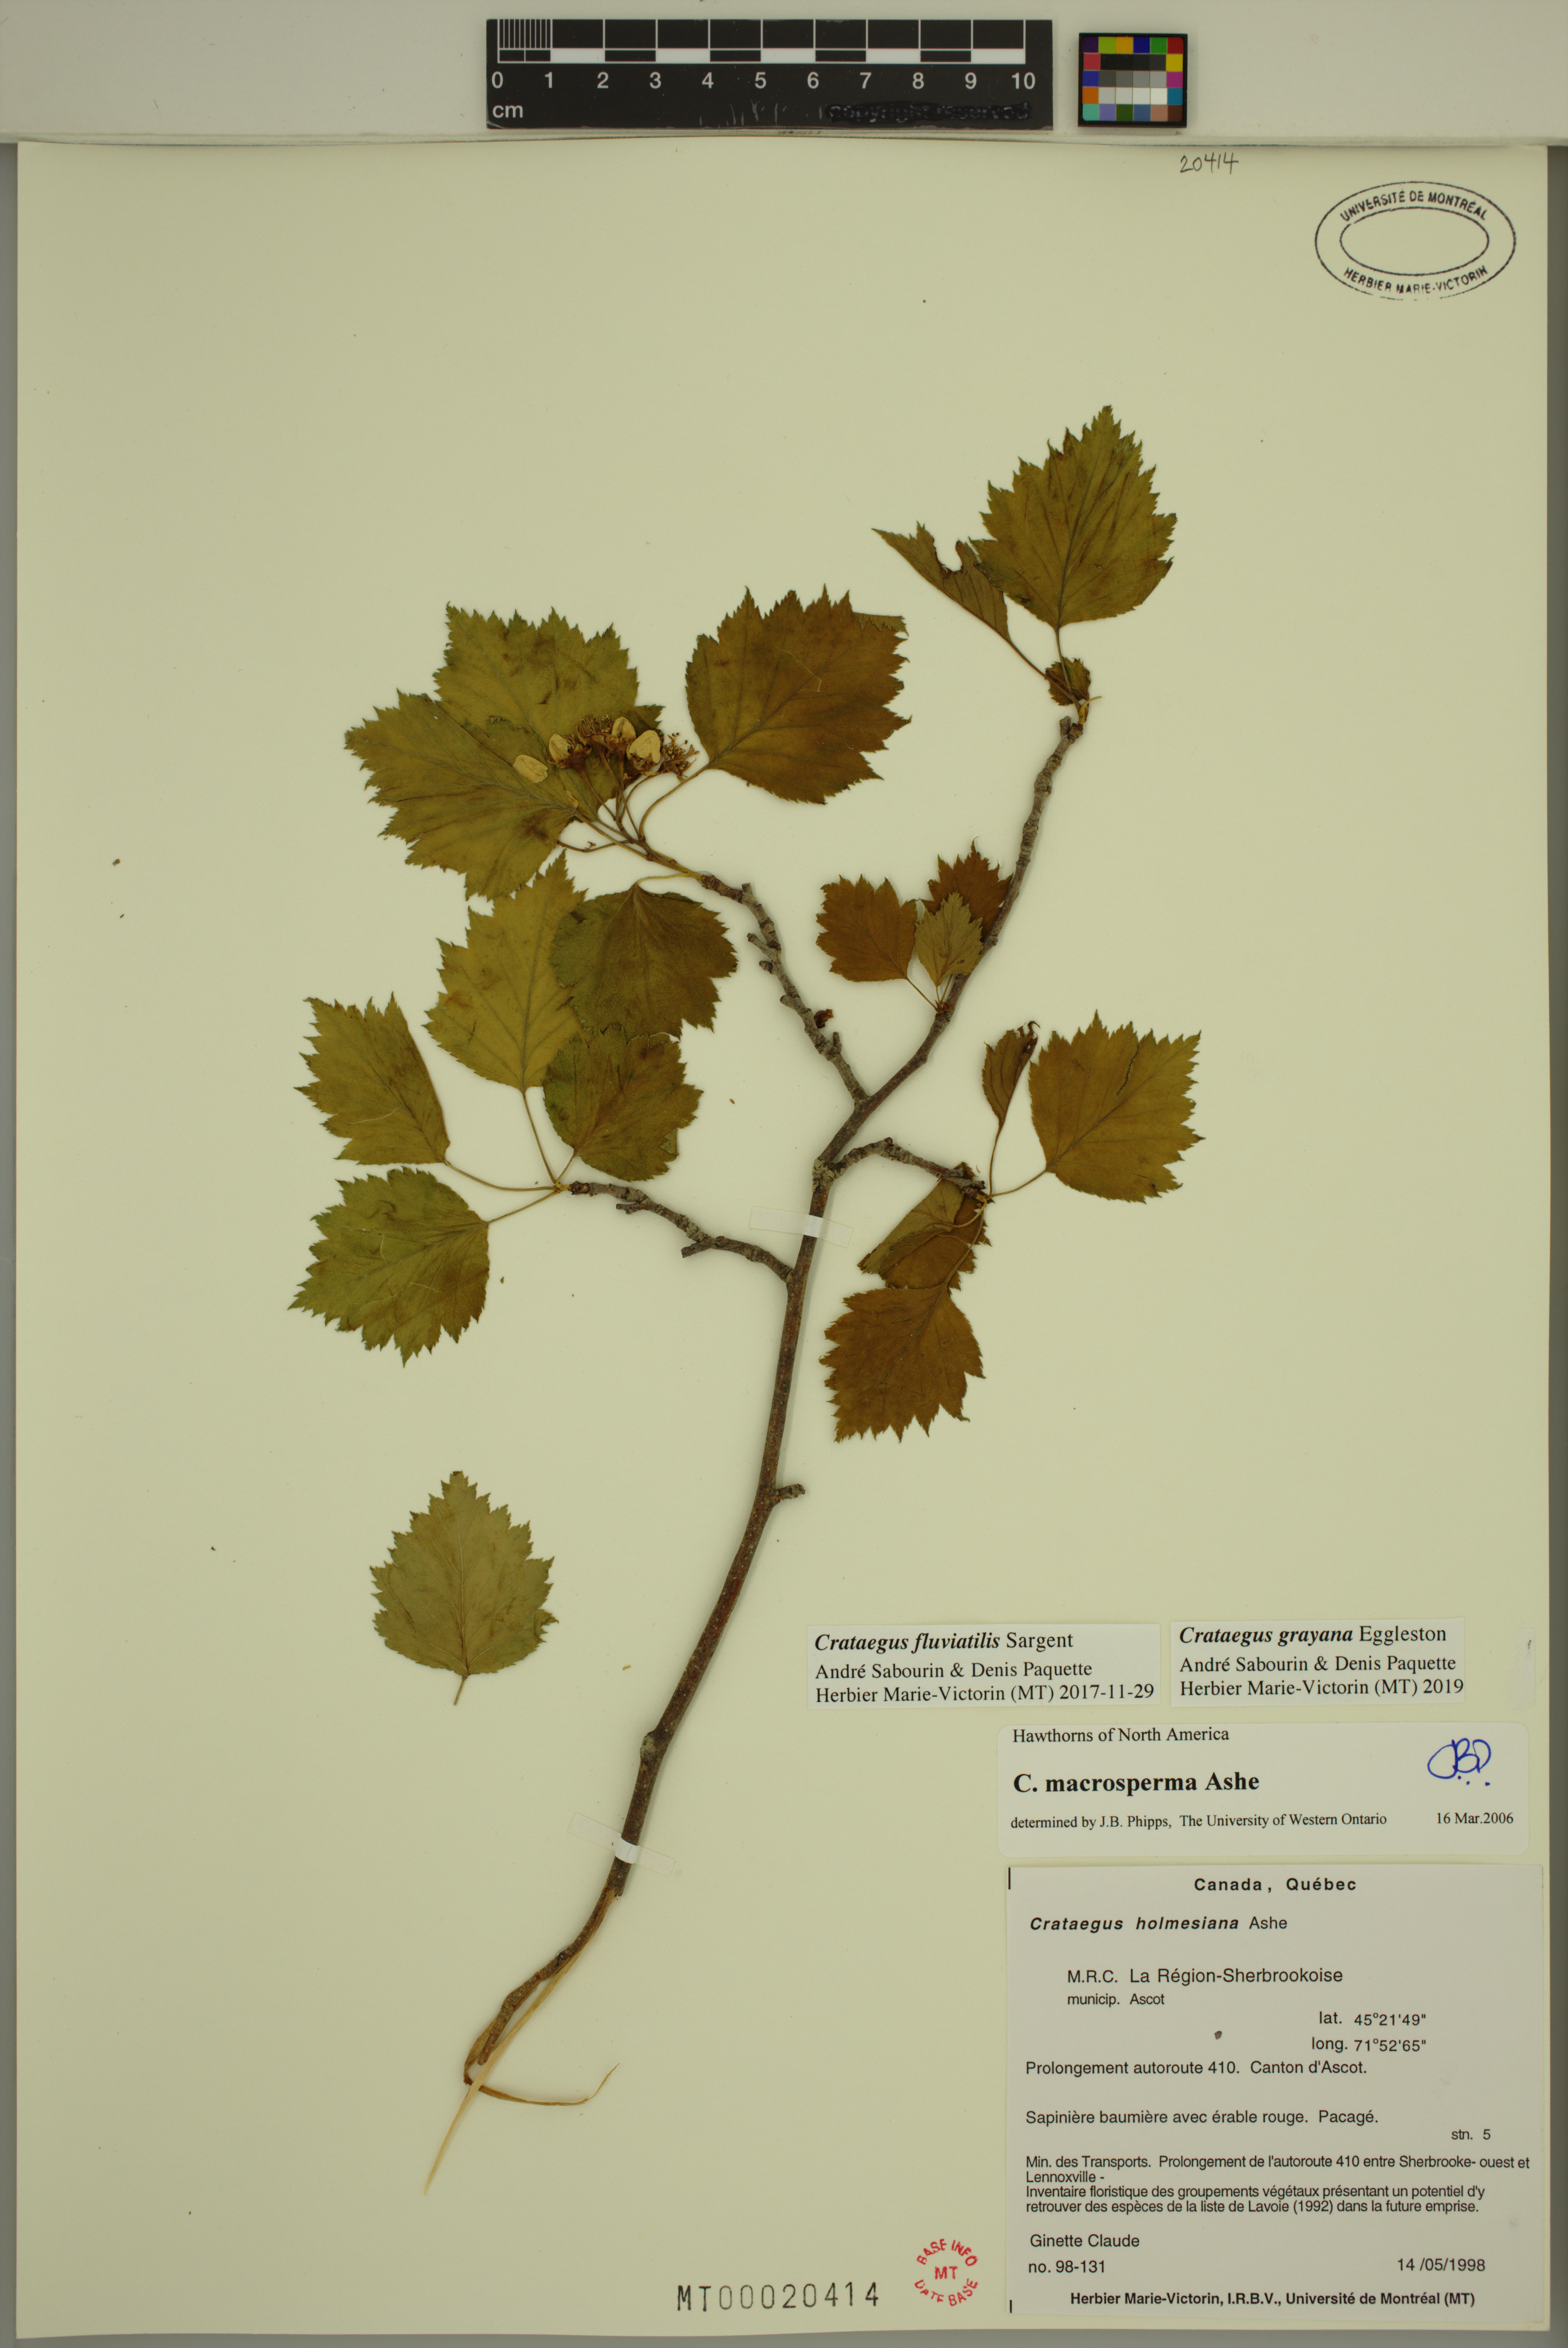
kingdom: Plantae
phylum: Tracheophyta
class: Magnoliopsida
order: Rosales
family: Rosaceae
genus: Crataegus
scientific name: Crataegus schuettei
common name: Schuette's hawthorn
